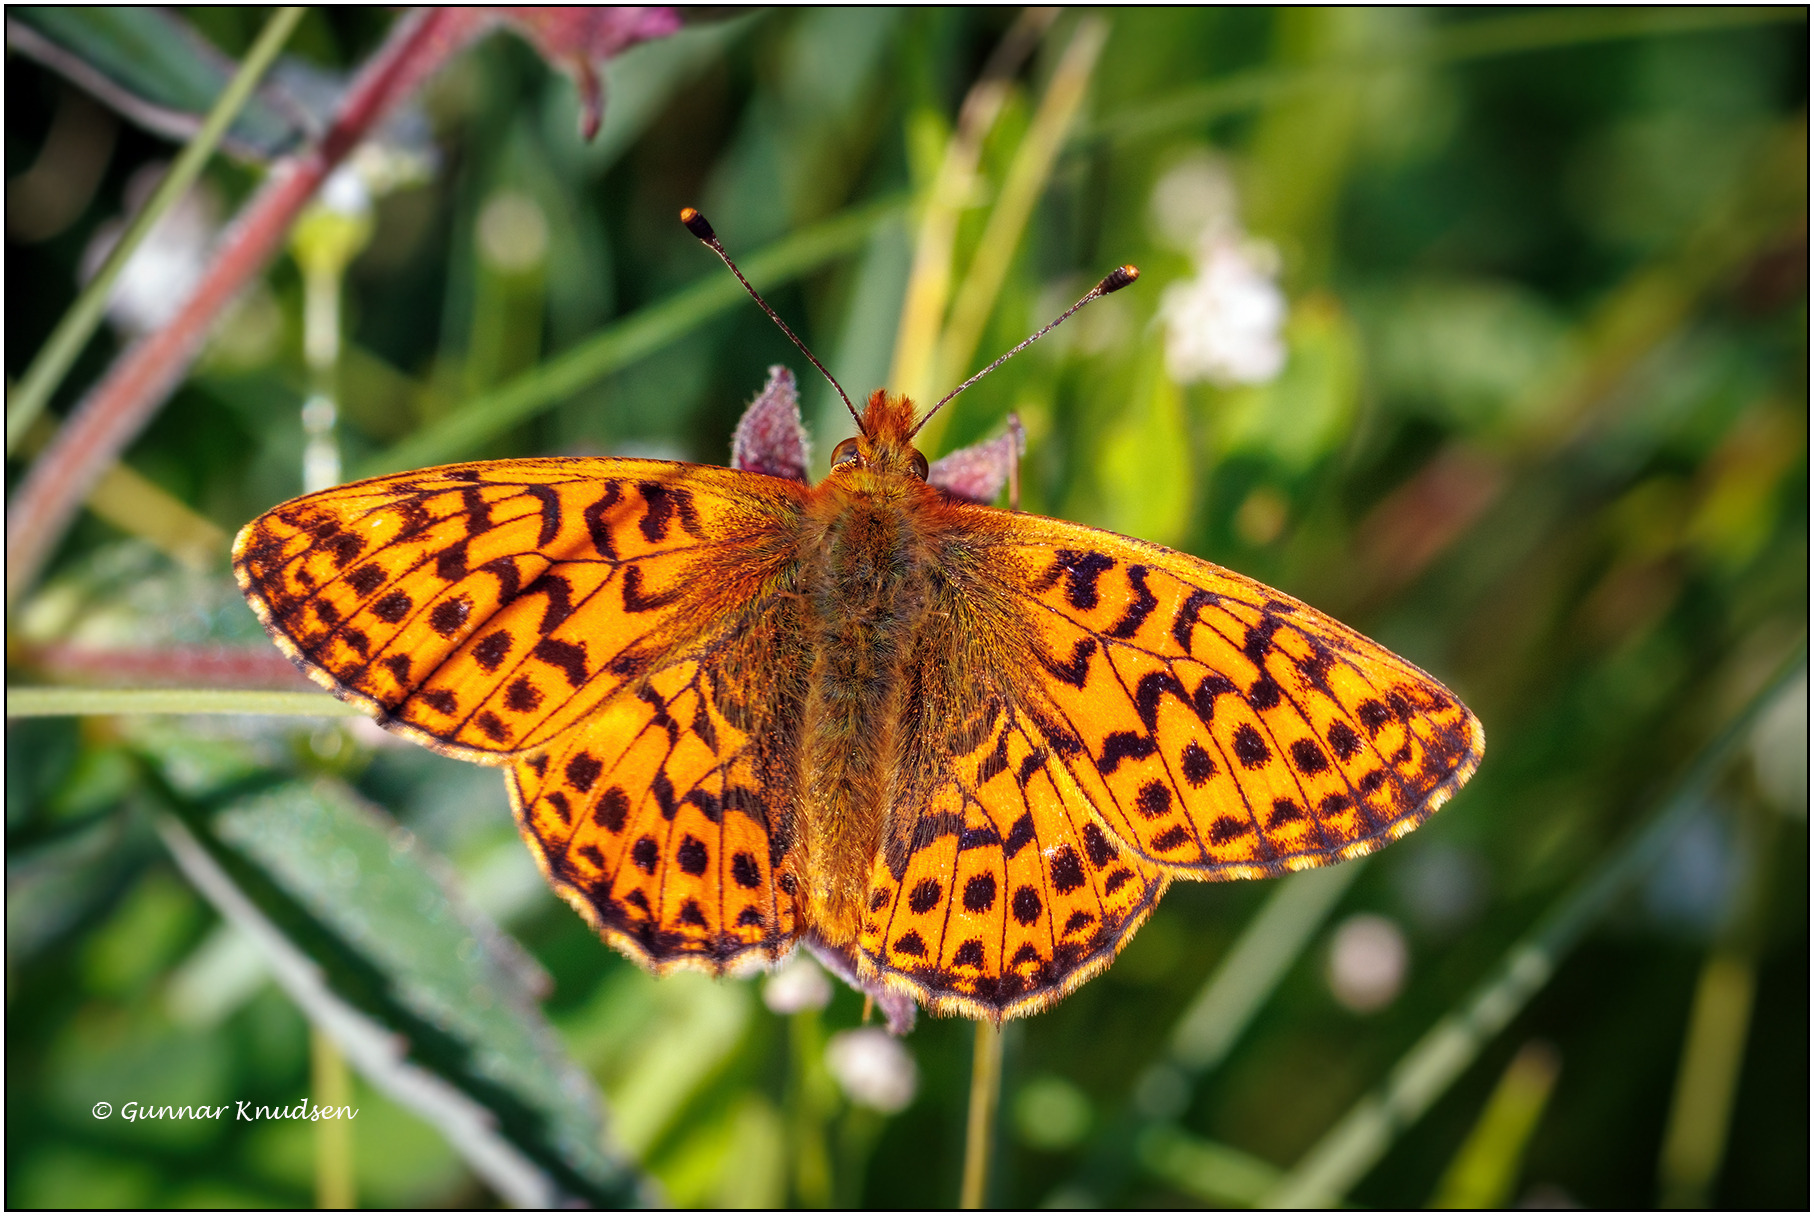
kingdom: Animalia
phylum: Arthropoda
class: Insecta
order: Lepidoptera
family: Nymphalidae
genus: Boloria
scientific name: Boloria aquilonaris
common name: Moseperlemorsommerfugl
